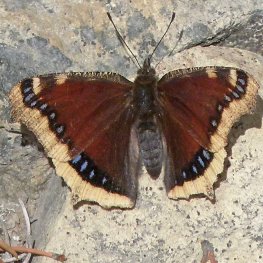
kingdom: Animalia
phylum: Arthropoda
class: Insecta
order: Lepidoptera
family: Nymphalidae
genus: Nymphalis
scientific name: Nymphalis antiopa
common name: Mourning Cloak
